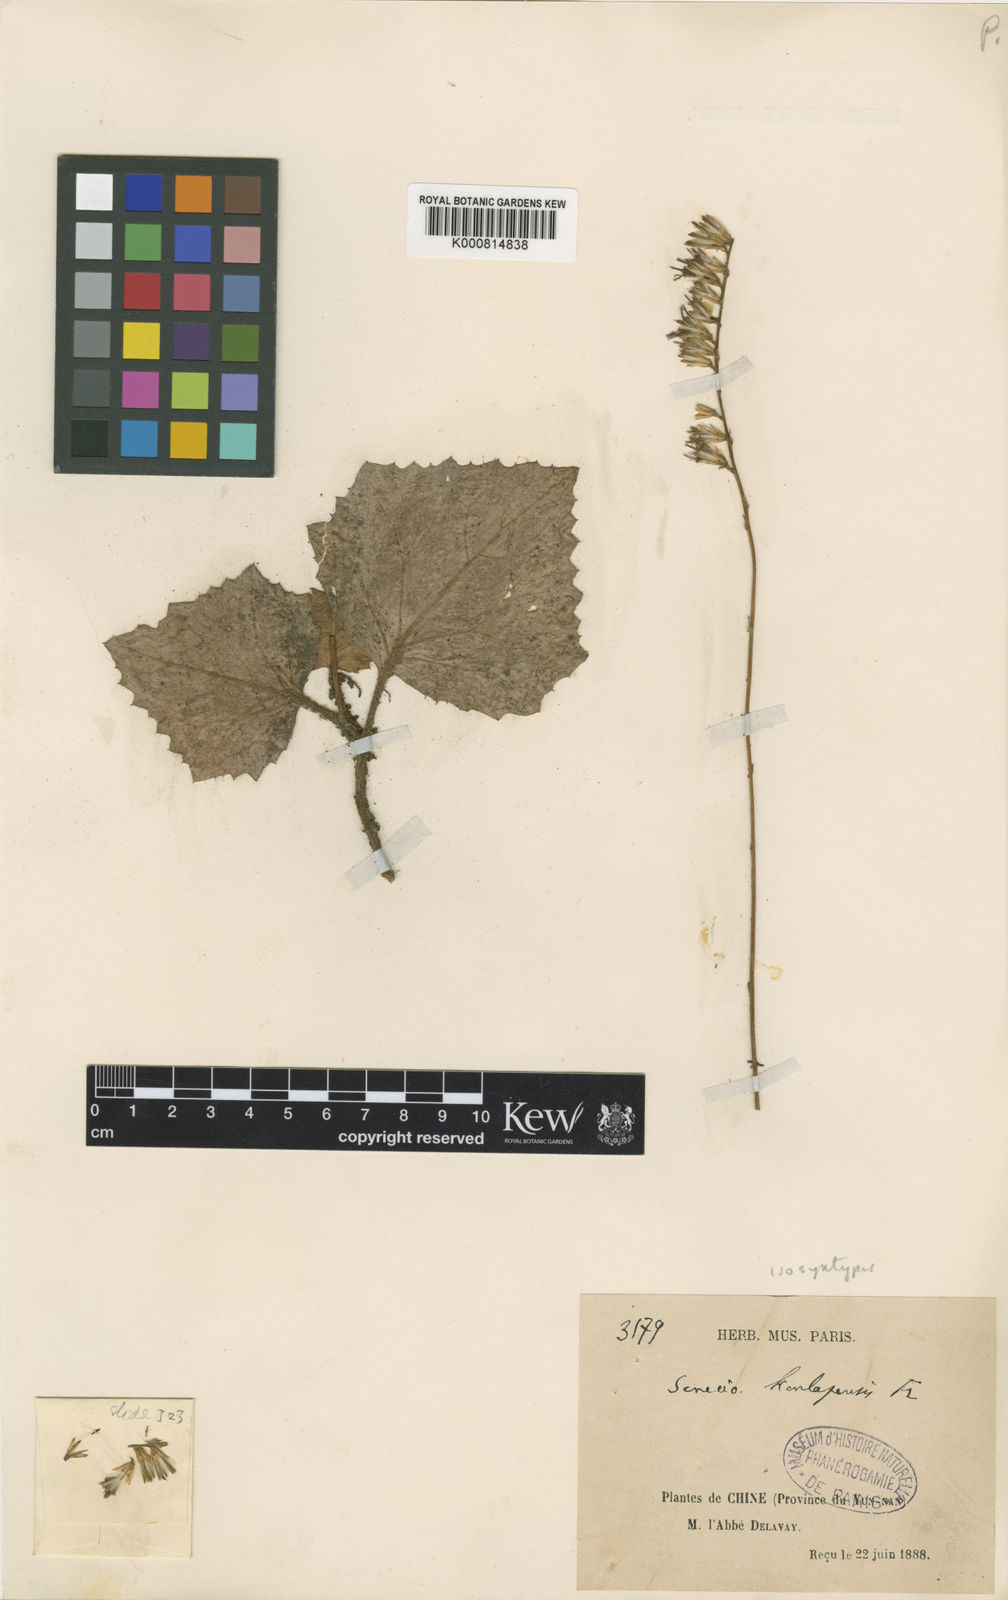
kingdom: Plantae
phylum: Tracheophyta
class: Magnoliopsida
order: Asterales
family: Asteraceae
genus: Parasenecio
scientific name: Parasenecio koualapensis
